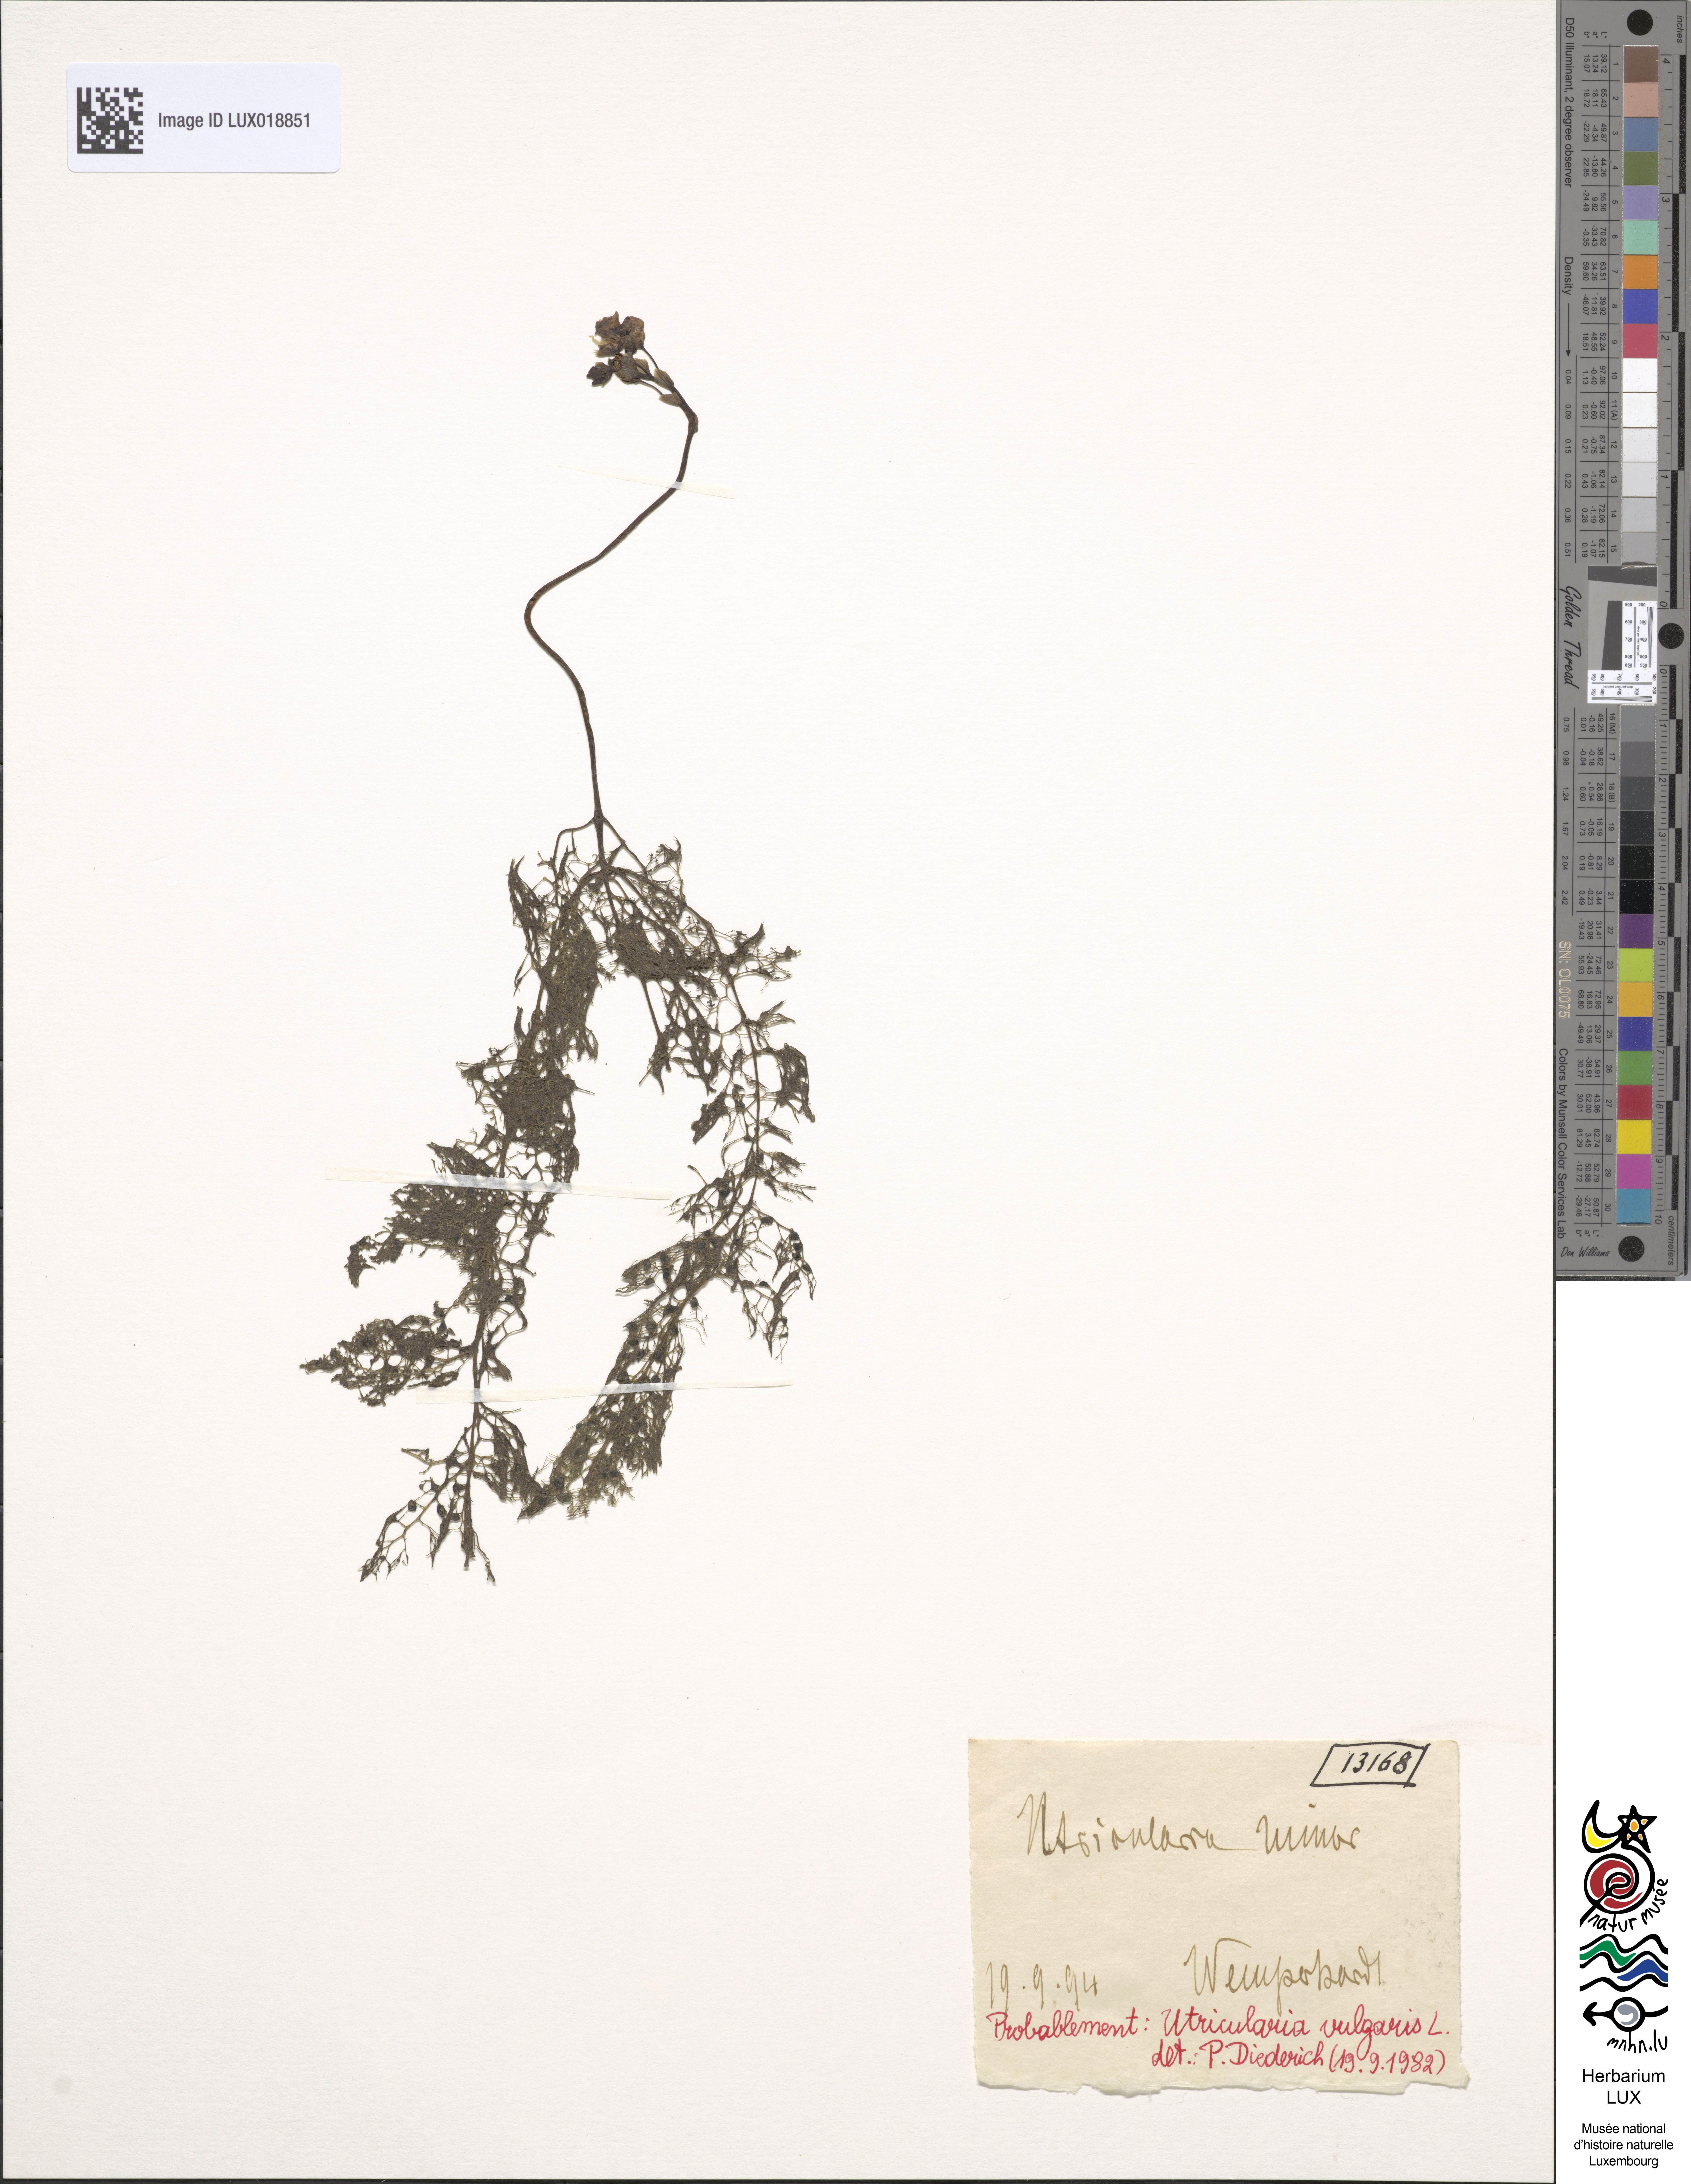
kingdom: Plantae
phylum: Tracheophyta
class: Magnoliopsida
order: Lamiales
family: Lentibulariaceae
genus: Utricularia
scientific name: Utricularia vulgaris
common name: Greater bladderwort
